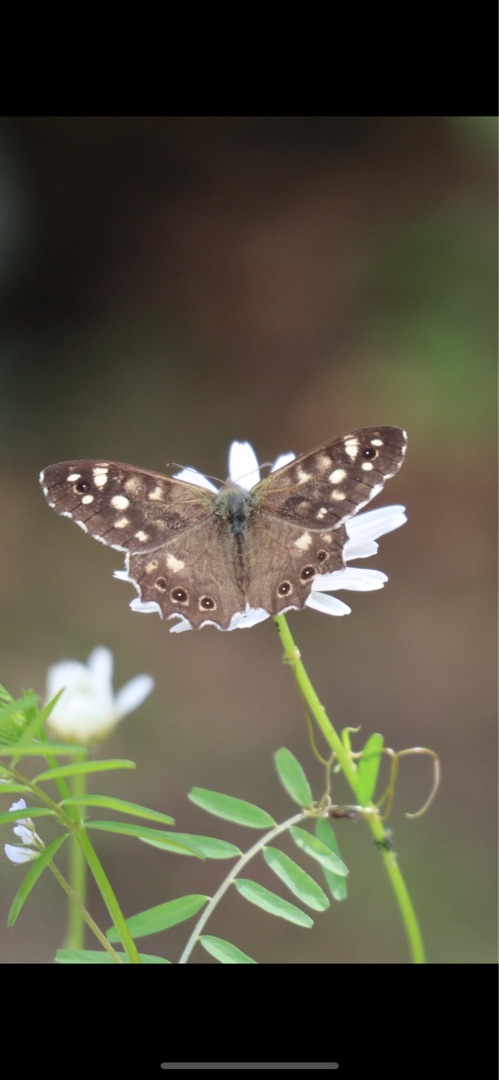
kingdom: Animalia
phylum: Arthropoda
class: Insecta
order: Lepidoptera
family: Nymphalidae
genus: Pararge
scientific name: Pararge aegeria
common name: Skovrandøje
